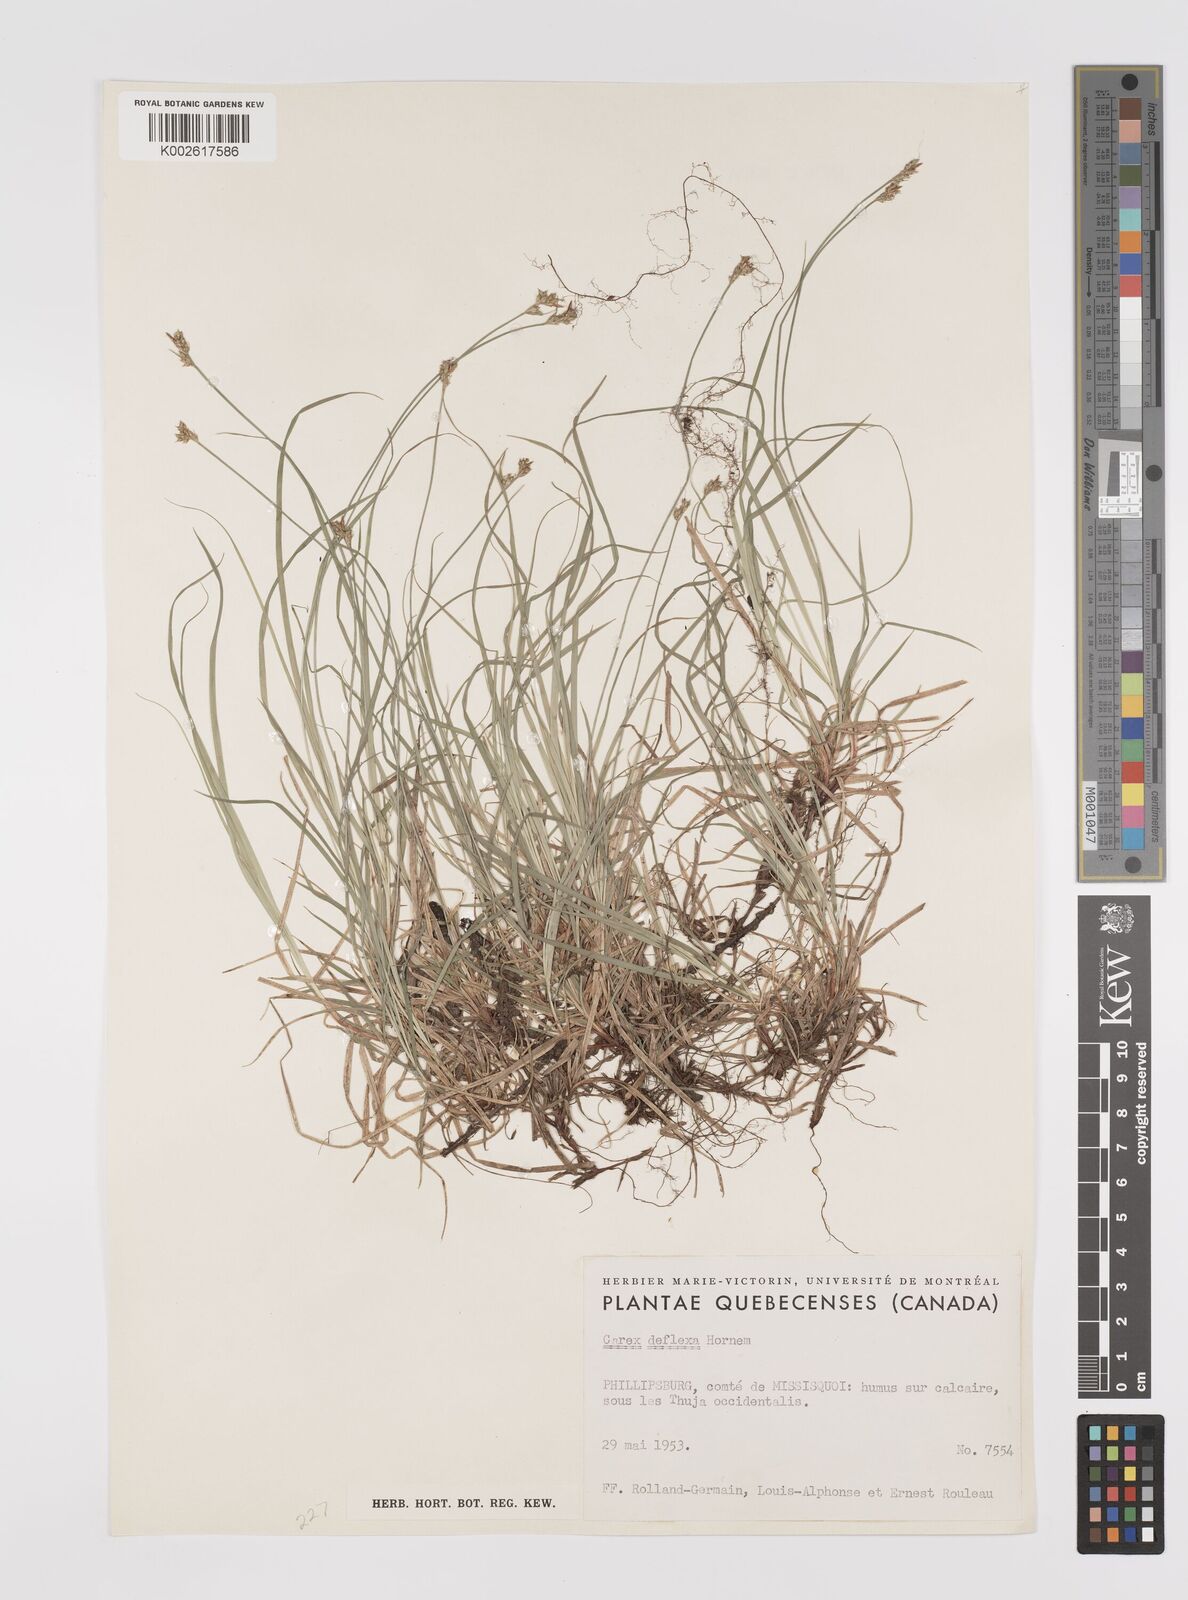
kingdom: Plantae
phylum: Tracheophyta
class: Liliopsida
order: Poales
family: Cyperaceae
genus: Carex
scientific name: Carex deflexa
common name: Bent northern sedge
